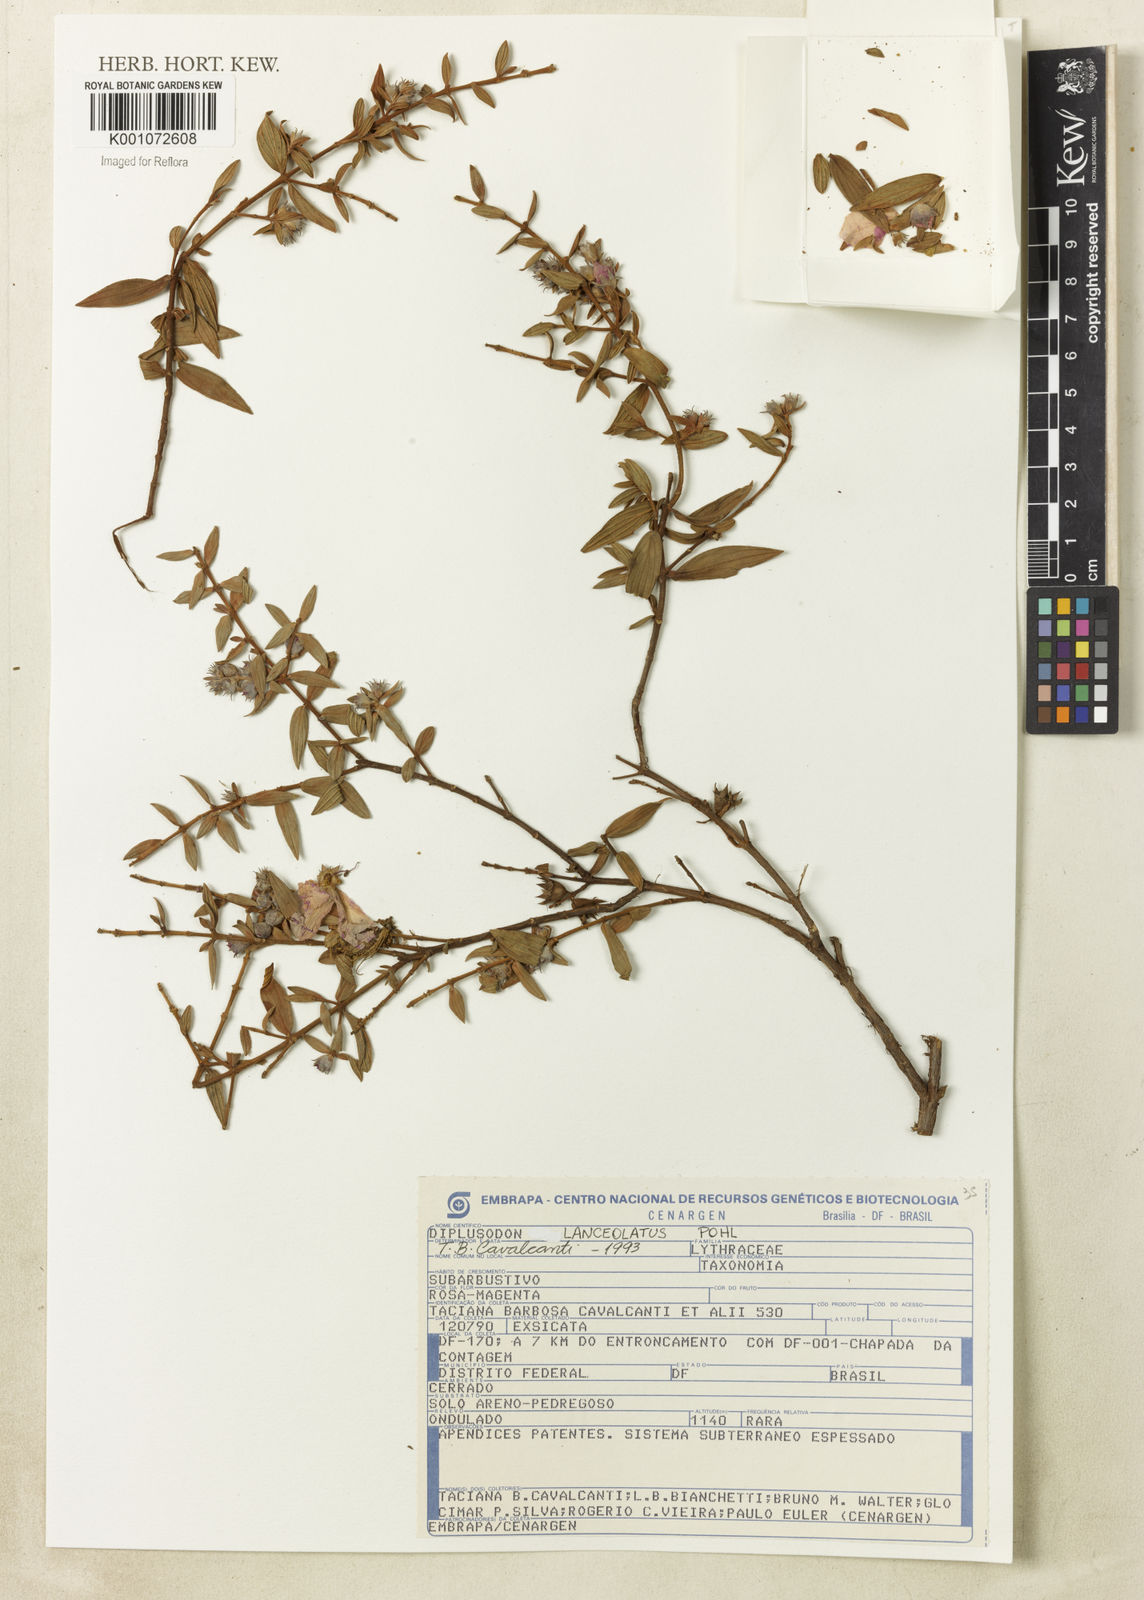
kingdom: Plantae
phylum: Tracheophyta
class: Magnoliopsida
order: Myrtales
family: Lythraceae
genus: Diplusodon
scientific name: Diplusodon lanceolatus
